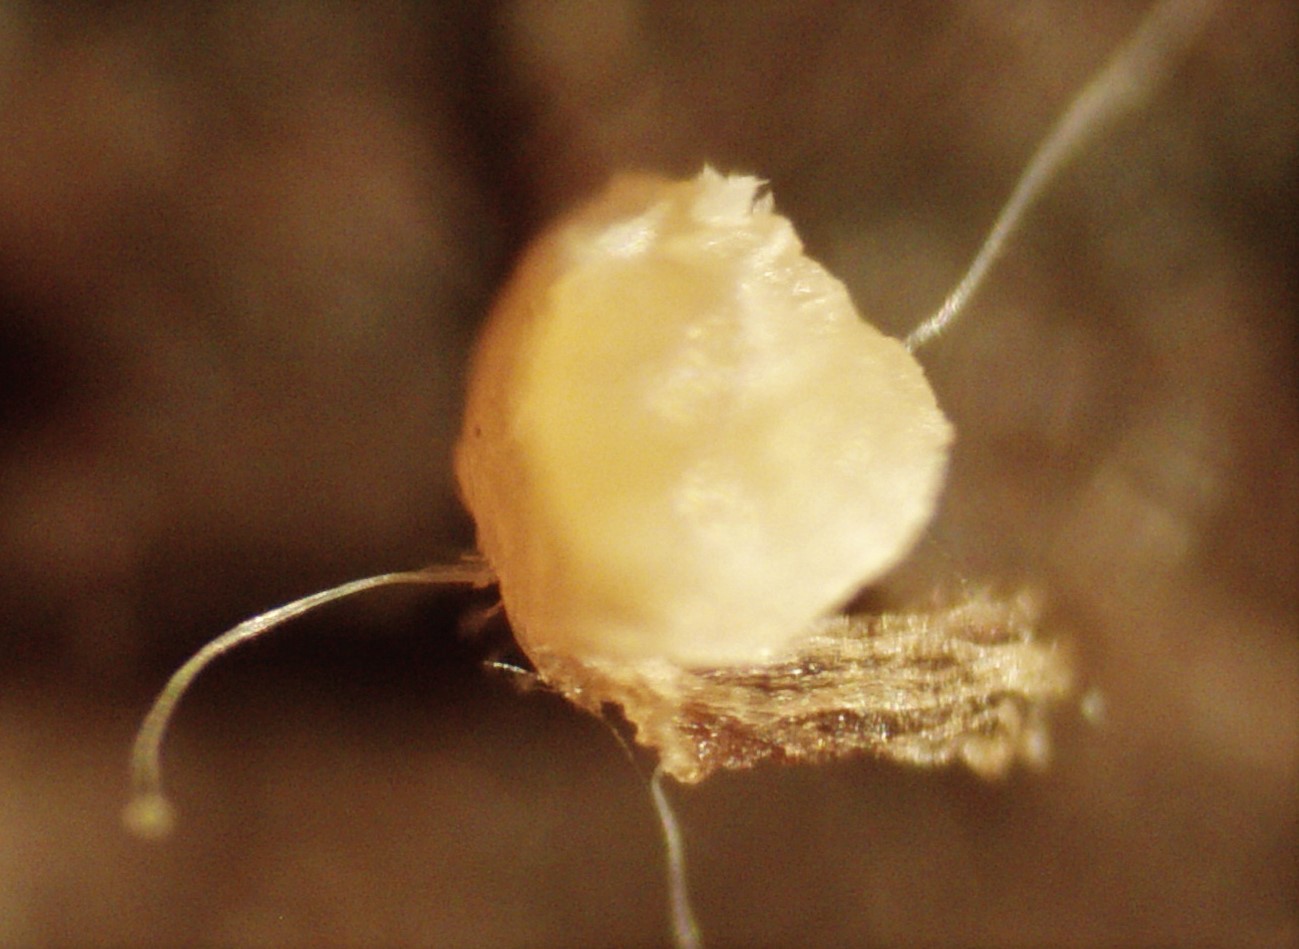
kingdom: Protozoa
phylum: Mycetozoa
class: Myxomycetes
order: Physarales
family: Physaraceae
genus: Physarum
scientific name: Physarum
